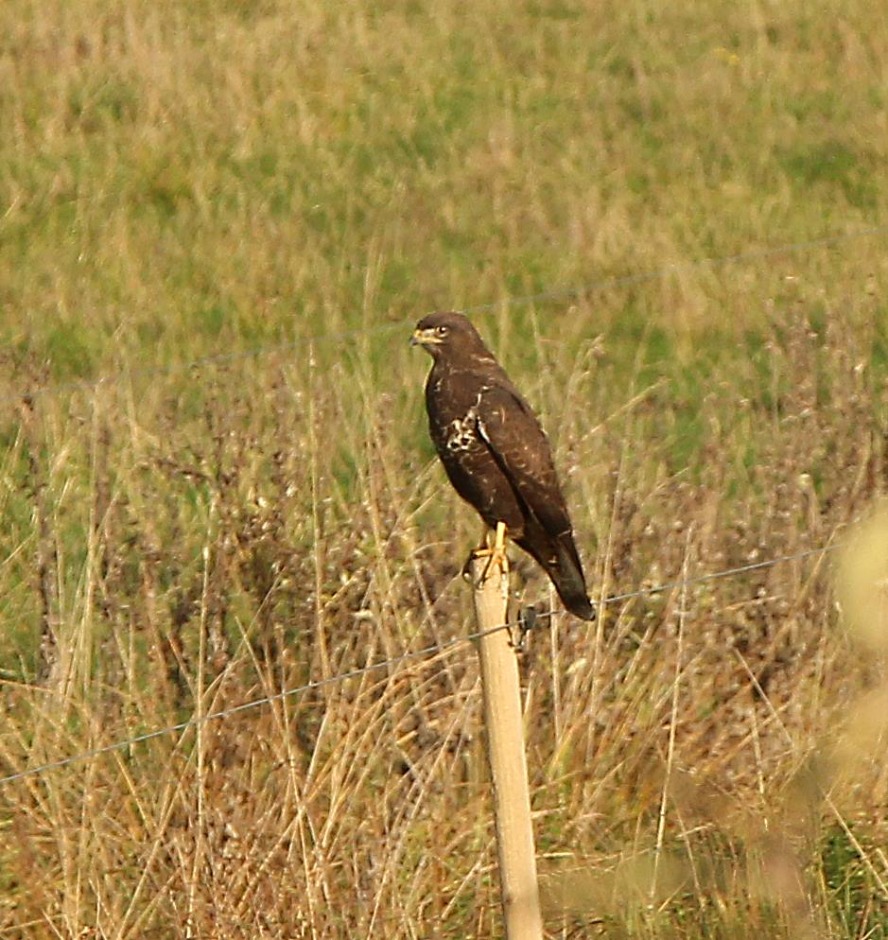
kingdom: Animalia
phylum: Chordata
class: Aves
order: Accipitriformes
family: Accipitridae
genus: Buteo
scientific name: Buteo buteo
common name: Musvåge
